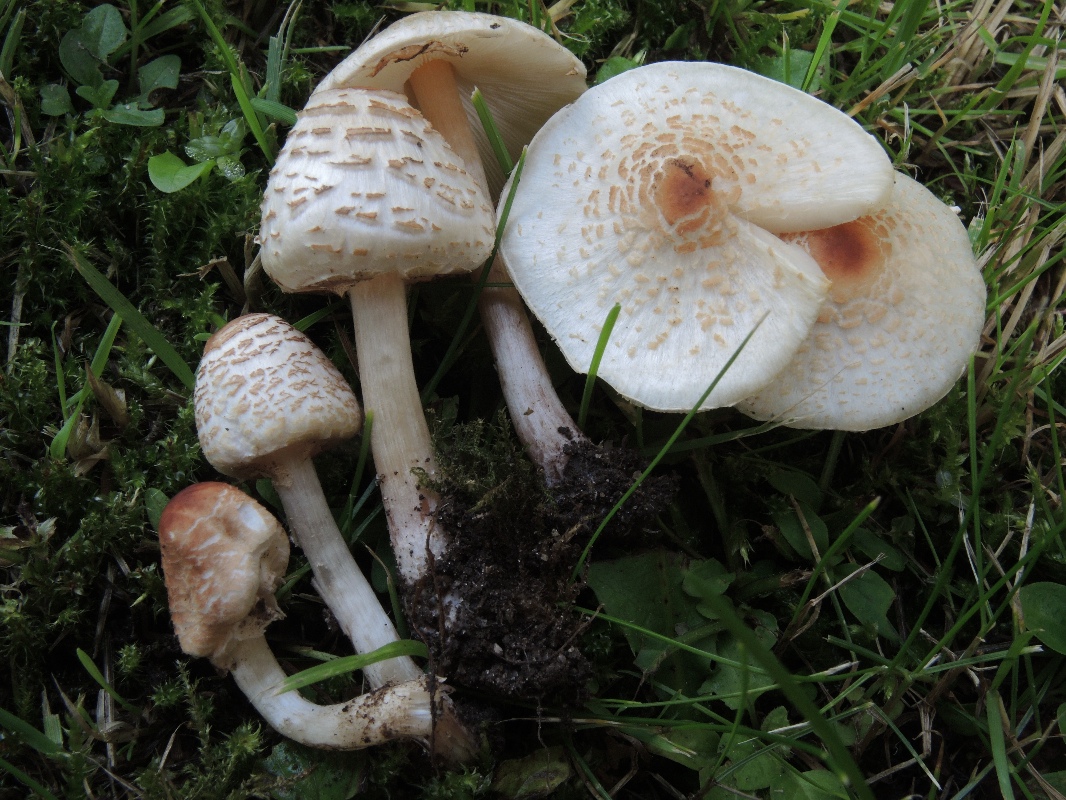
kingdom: Fungi
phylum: Basidiomycota
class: Agaricomycetes
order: Agaricales
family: Agaricaceae
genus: Lepiota
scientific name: Lepiota cristata
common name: stinkende parasolhat
